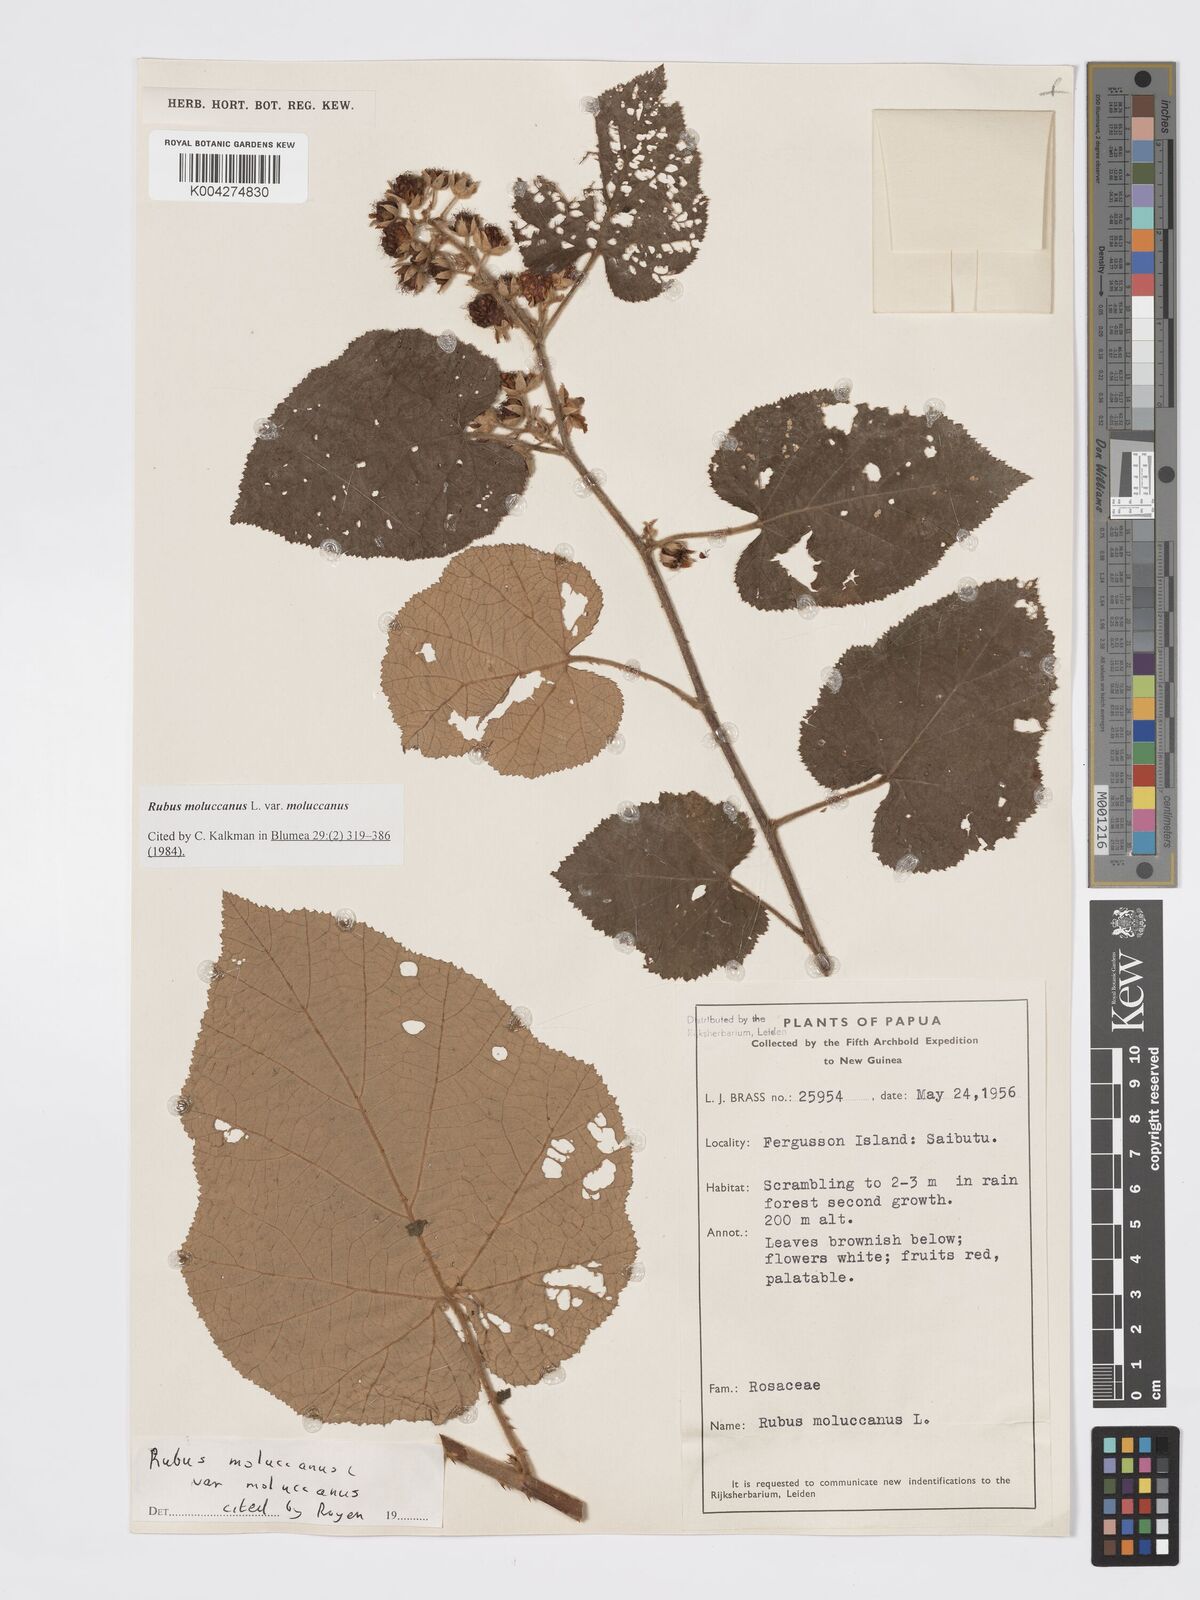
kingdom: Plantae
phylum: Tracheophyta
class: Magnoliopsida
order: Rosales
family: Rosaceae
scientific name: Rosaceae
